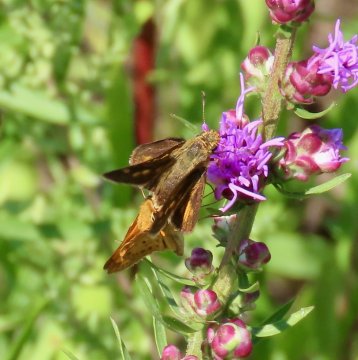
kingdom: Animalia
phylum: Arthropoda
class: Insecta
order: Lepidoptera
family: Hesperiidae
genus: Polites
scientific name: Polites coras
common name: Peck's Skipper
